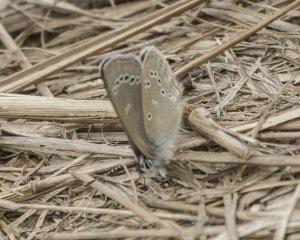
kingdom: Animalia
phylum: Arthropoda
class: Insecta
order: Lepidoptera
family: Lycaenidae
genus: Glaucopsyche
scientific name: Glaucopsyche lygdamus
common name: Silvery Blue
